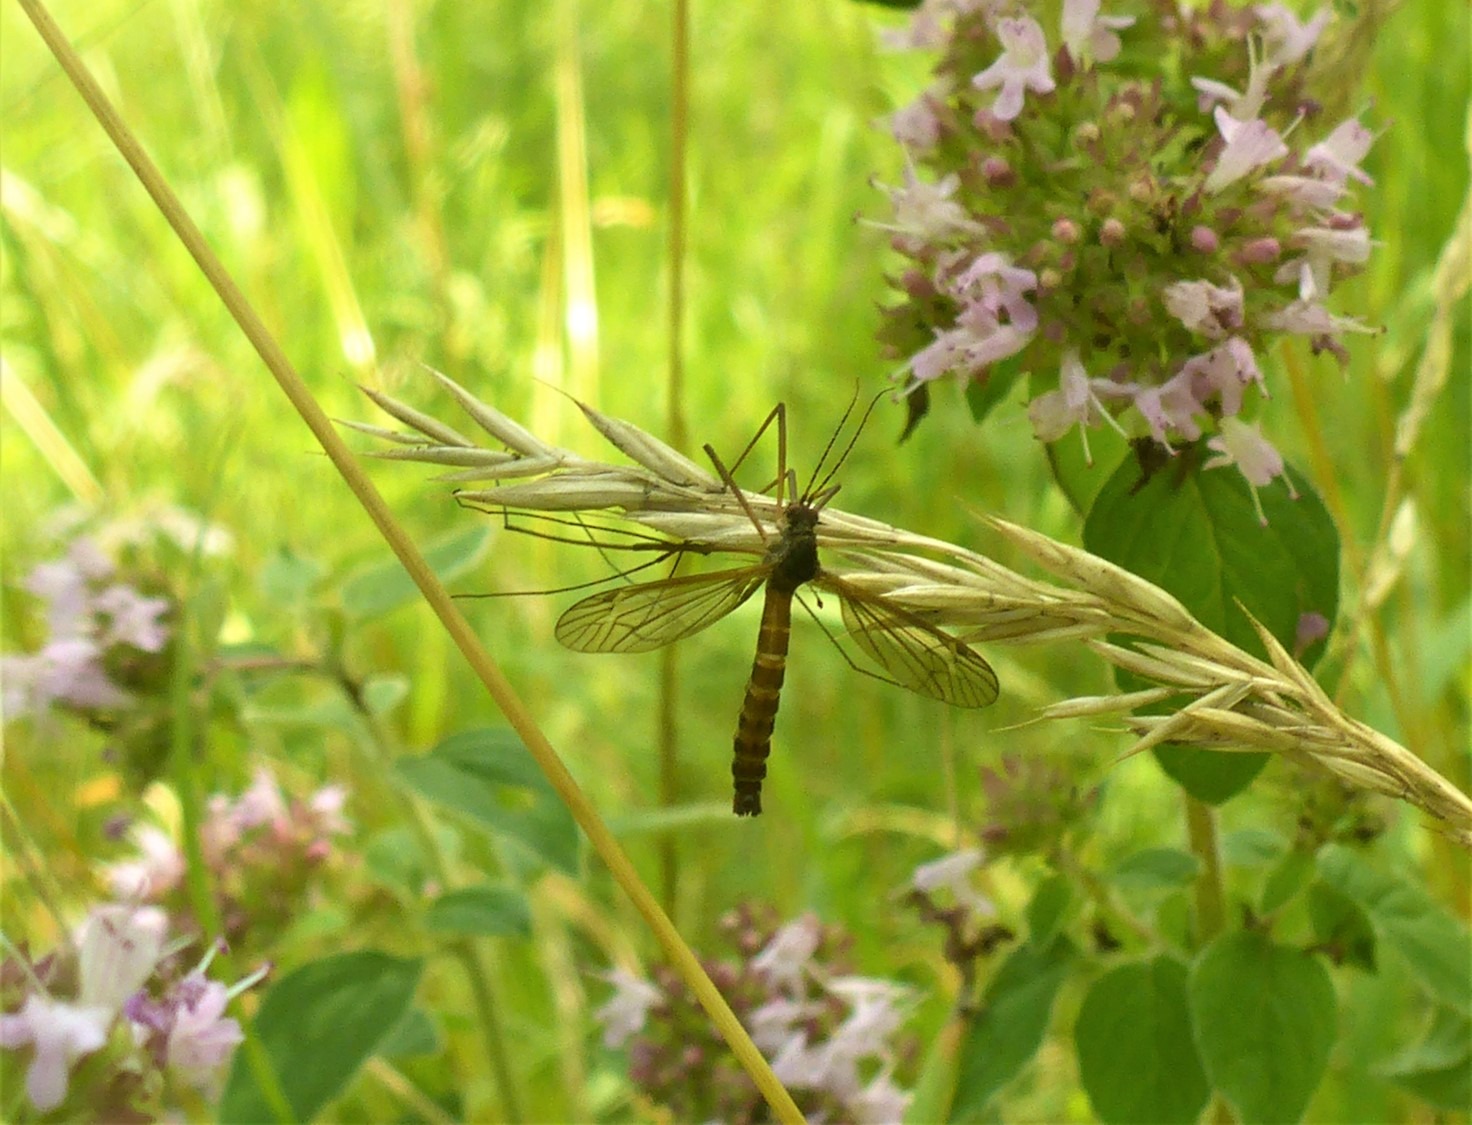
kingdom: Animalia
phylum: Arthropoda
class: Insecta
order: Diptera
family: Tipulidae
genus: Nigrotipula
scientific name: Nigrotipula nigra
